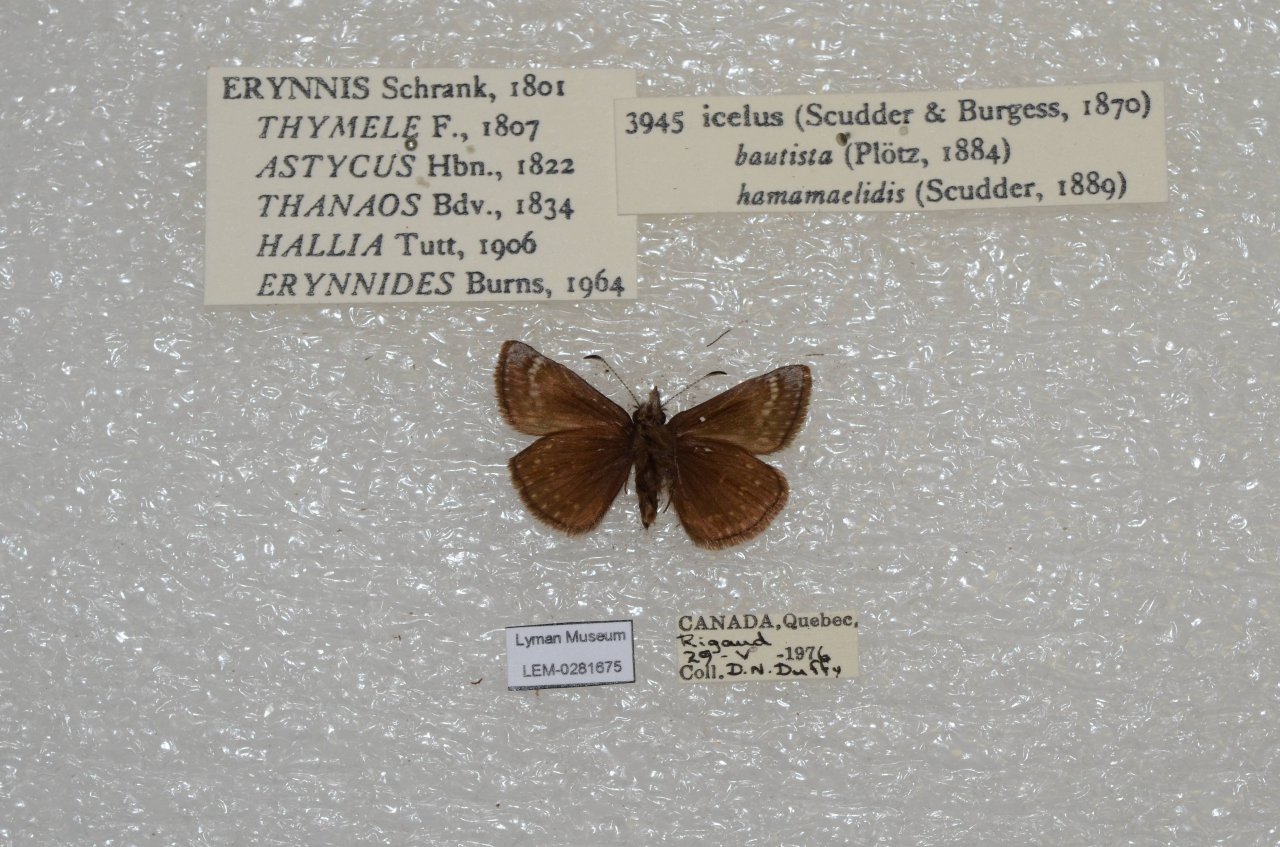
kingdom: Animalia
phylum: Arthropoda
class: Insecta
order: Lepidoptera
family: Hesperiidae
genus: Erynnis
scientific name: Erynnis icelus
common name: Dreamy Duskywing
